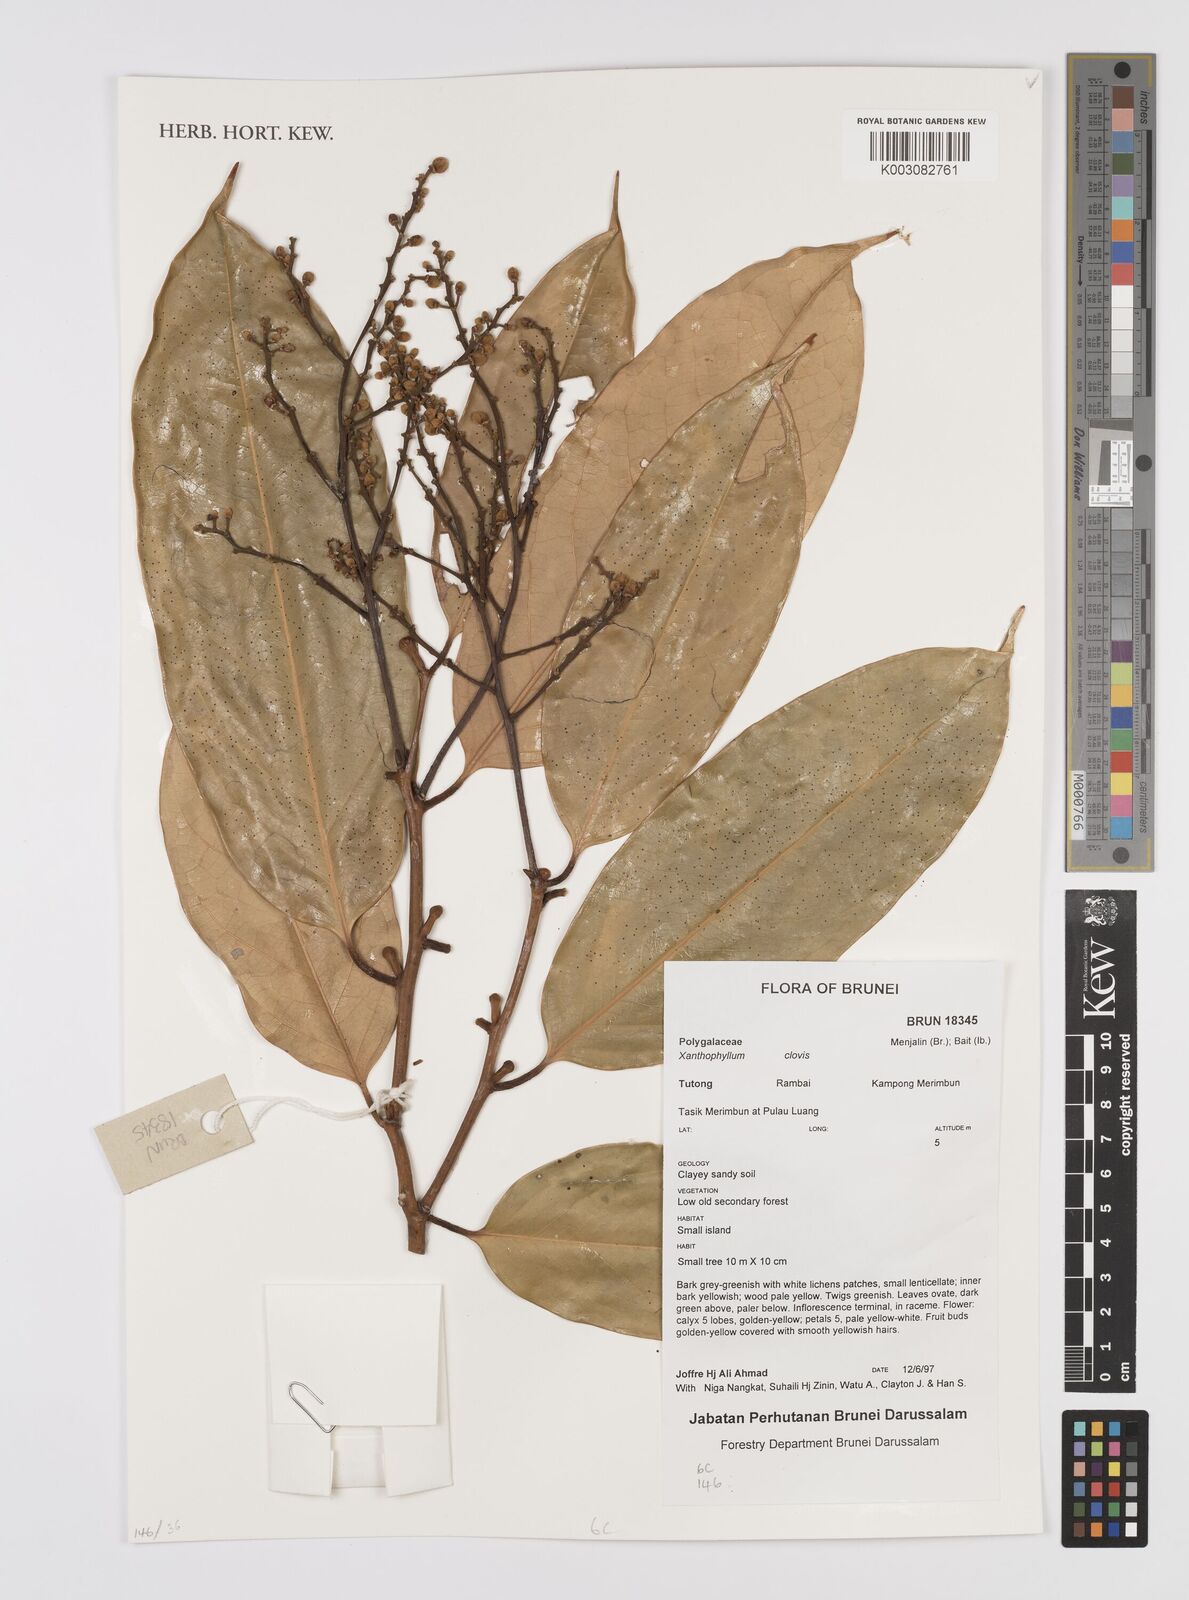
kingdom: Plantae
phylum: Tracheophyta
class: Magnoliopsida
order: Fabales
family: Polygalaceae
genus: Xanthophyllum
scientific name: Xanthophyllum clovis
